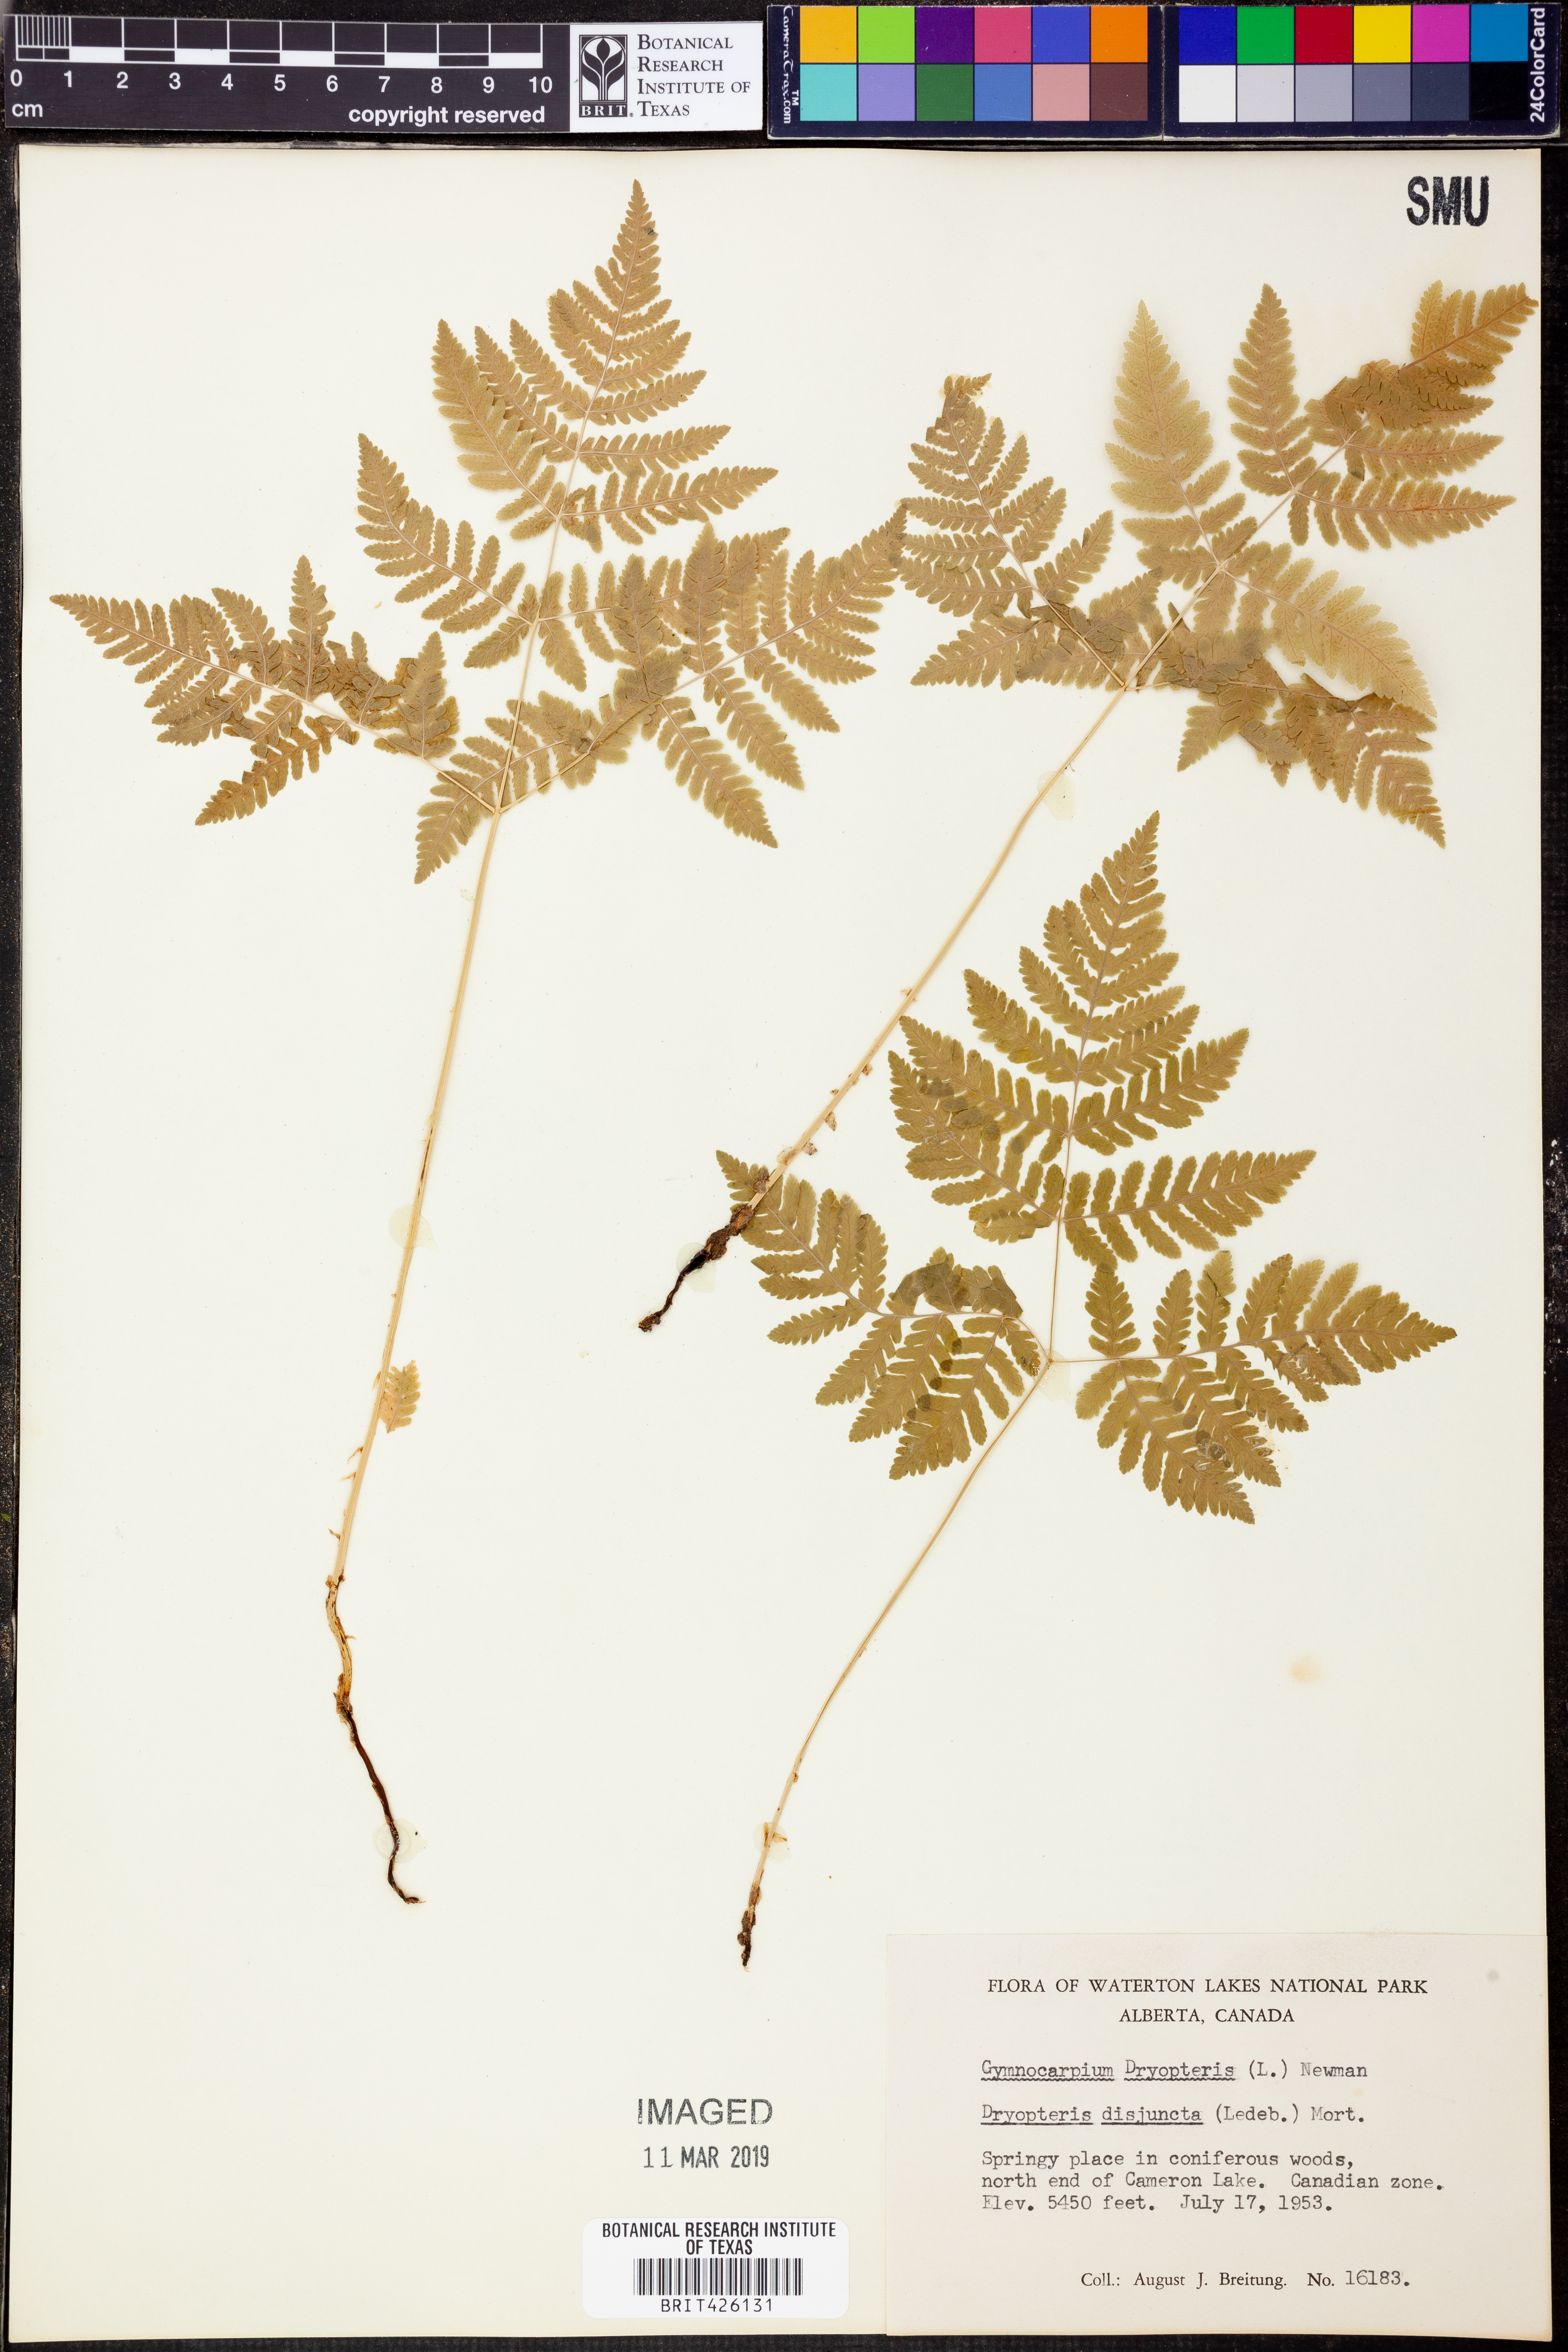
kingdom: Plantae
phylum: Tracheophyta
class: Polypodiopsida
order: Polypodiales
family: Cystopteridaceae
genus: Gymnocarpium
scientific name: Gymnocarpium dryopteris
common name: Oak fern
